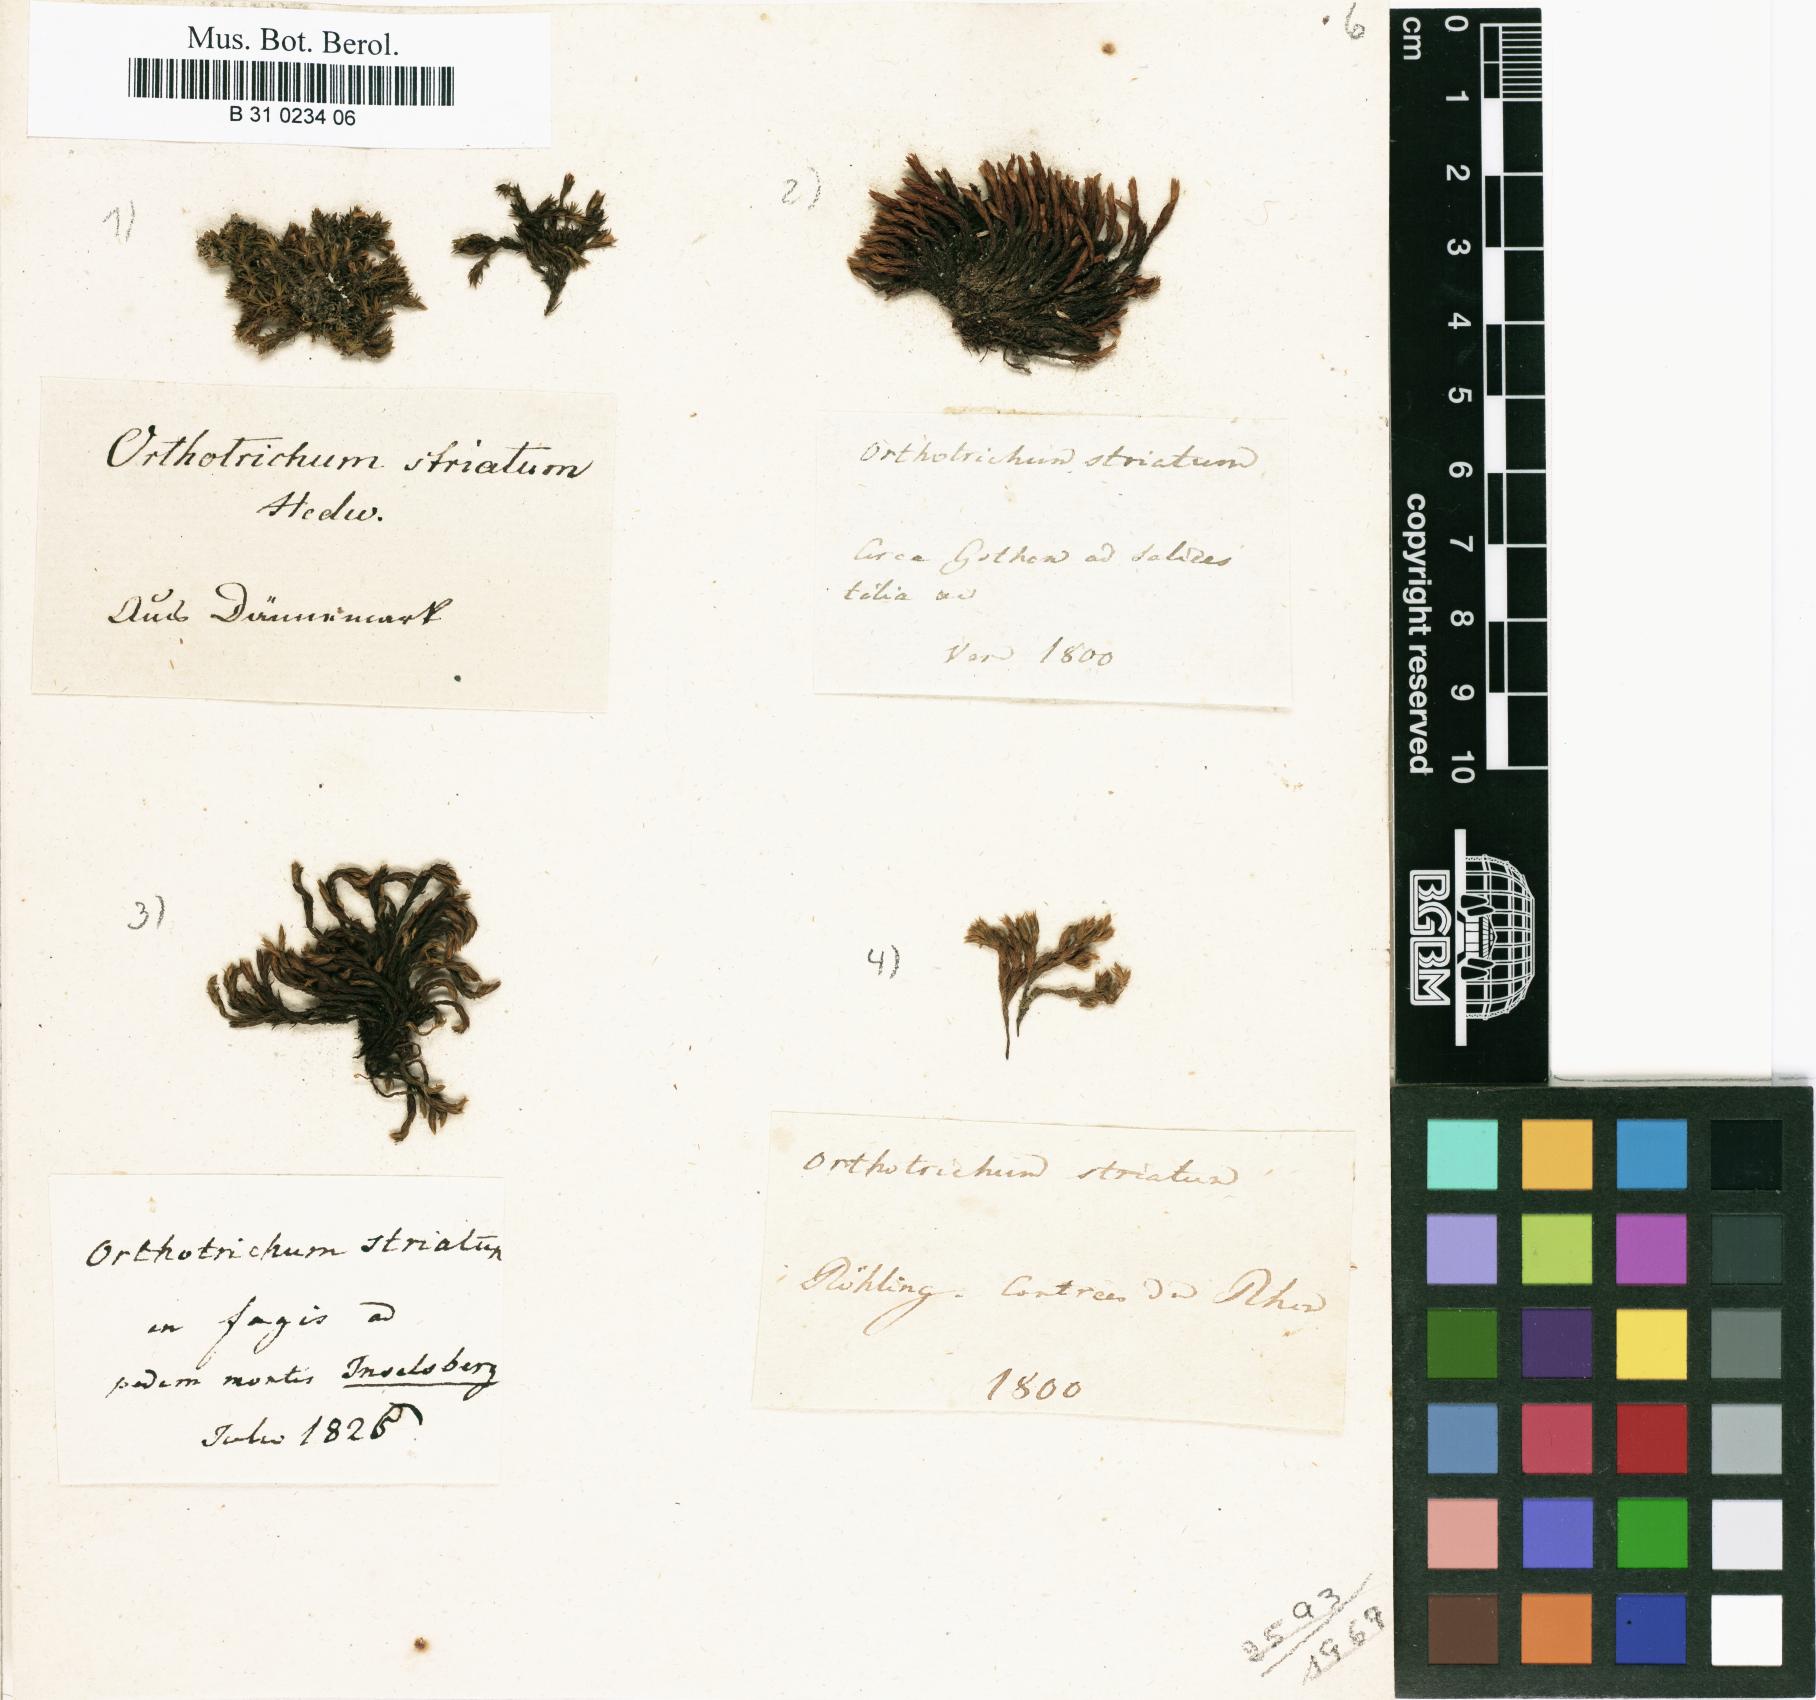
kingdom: Plantae
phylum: Bryophyta
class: Bryopsida
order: Orthotrichales
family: Orthotrichaceae
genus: Lewinskya
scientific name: Lewinskya striata
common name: Shaw's bristle-moss
